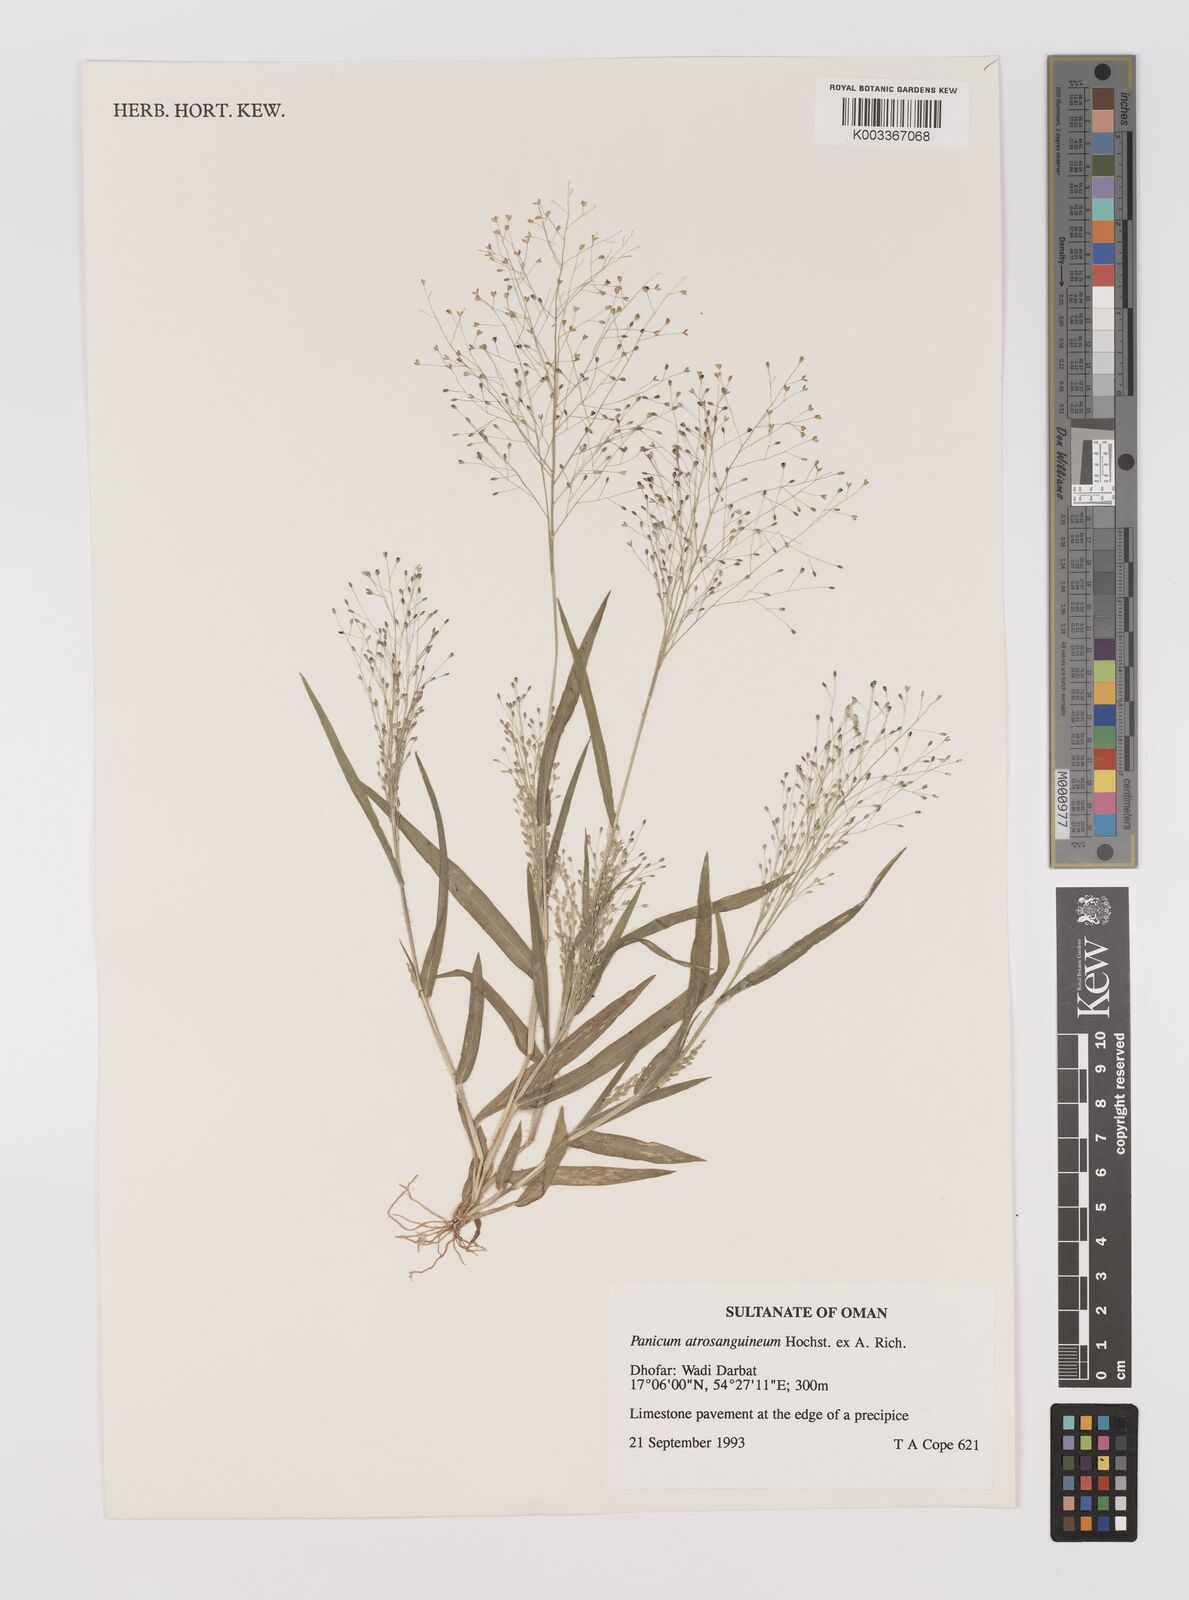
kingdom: Plantae
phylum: Tracheophyta
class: Liliopsida
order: Poales
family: Poaceae
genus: Panicum
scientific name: Panicum atrosanguineum
